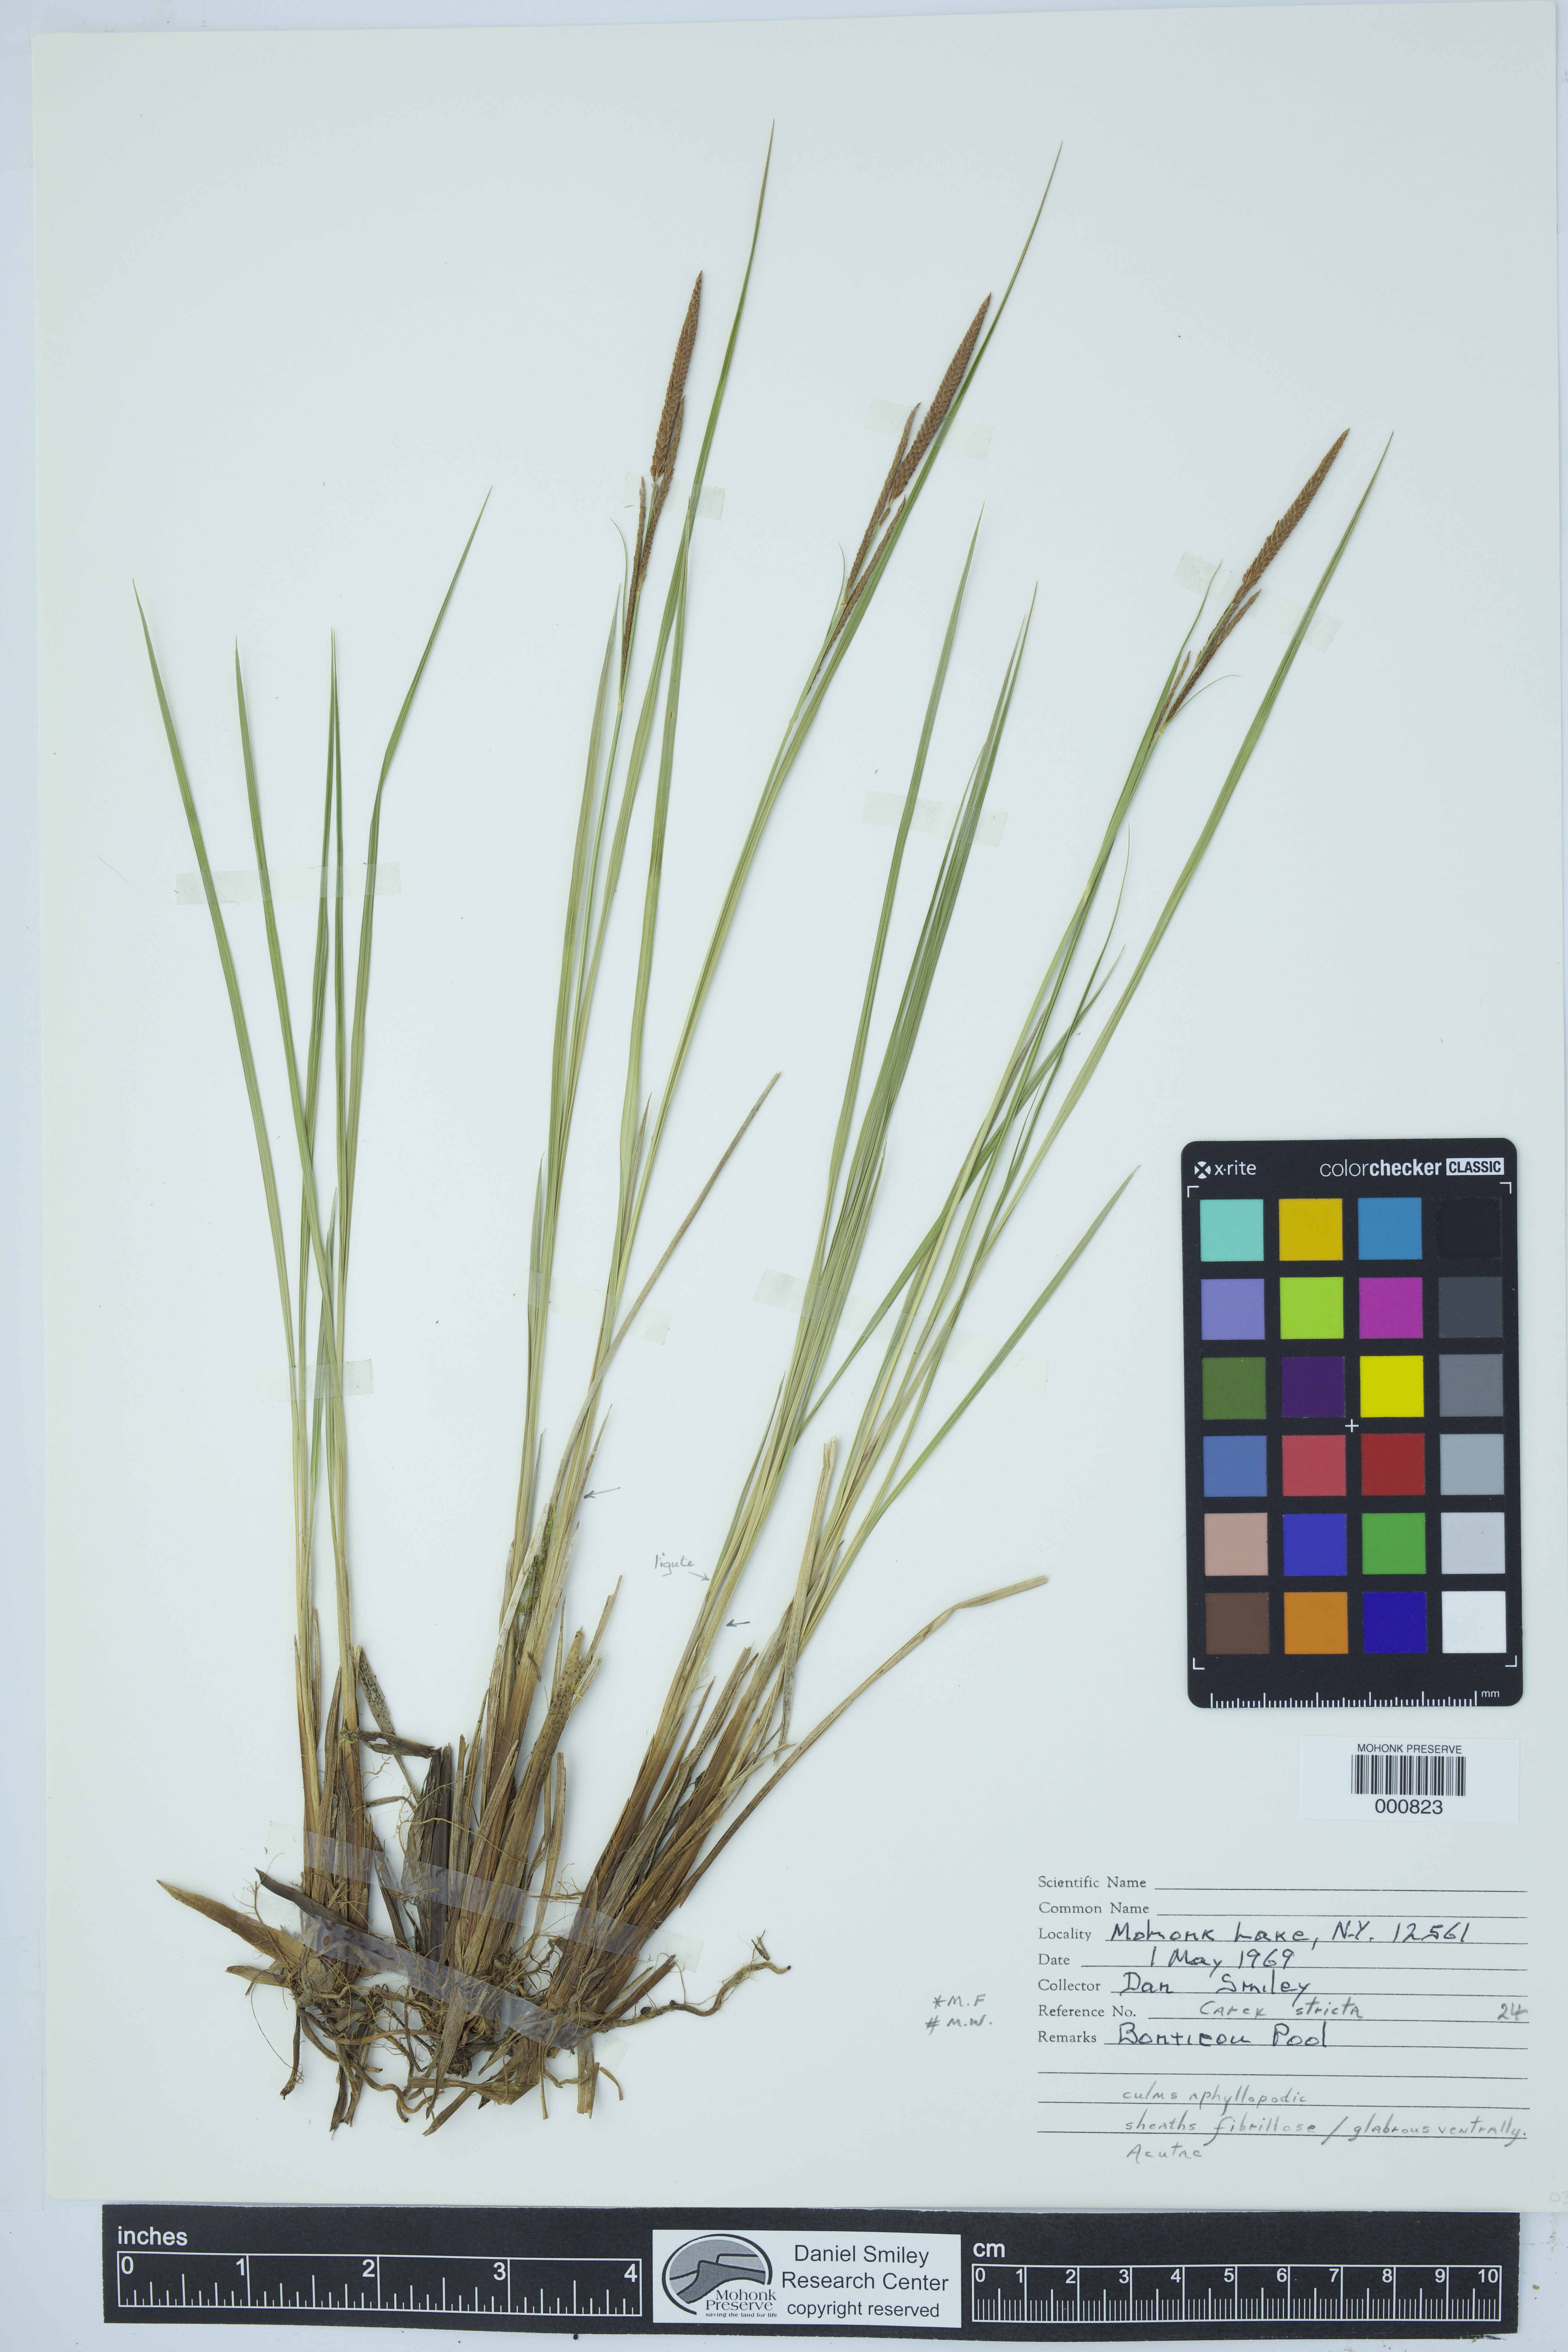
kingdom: Plantae
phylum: Tracheophyta
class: Liliopsida
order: Poales
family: Cyperaceae
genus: Carex
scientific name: Carex stricta
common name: Hummock sedge
